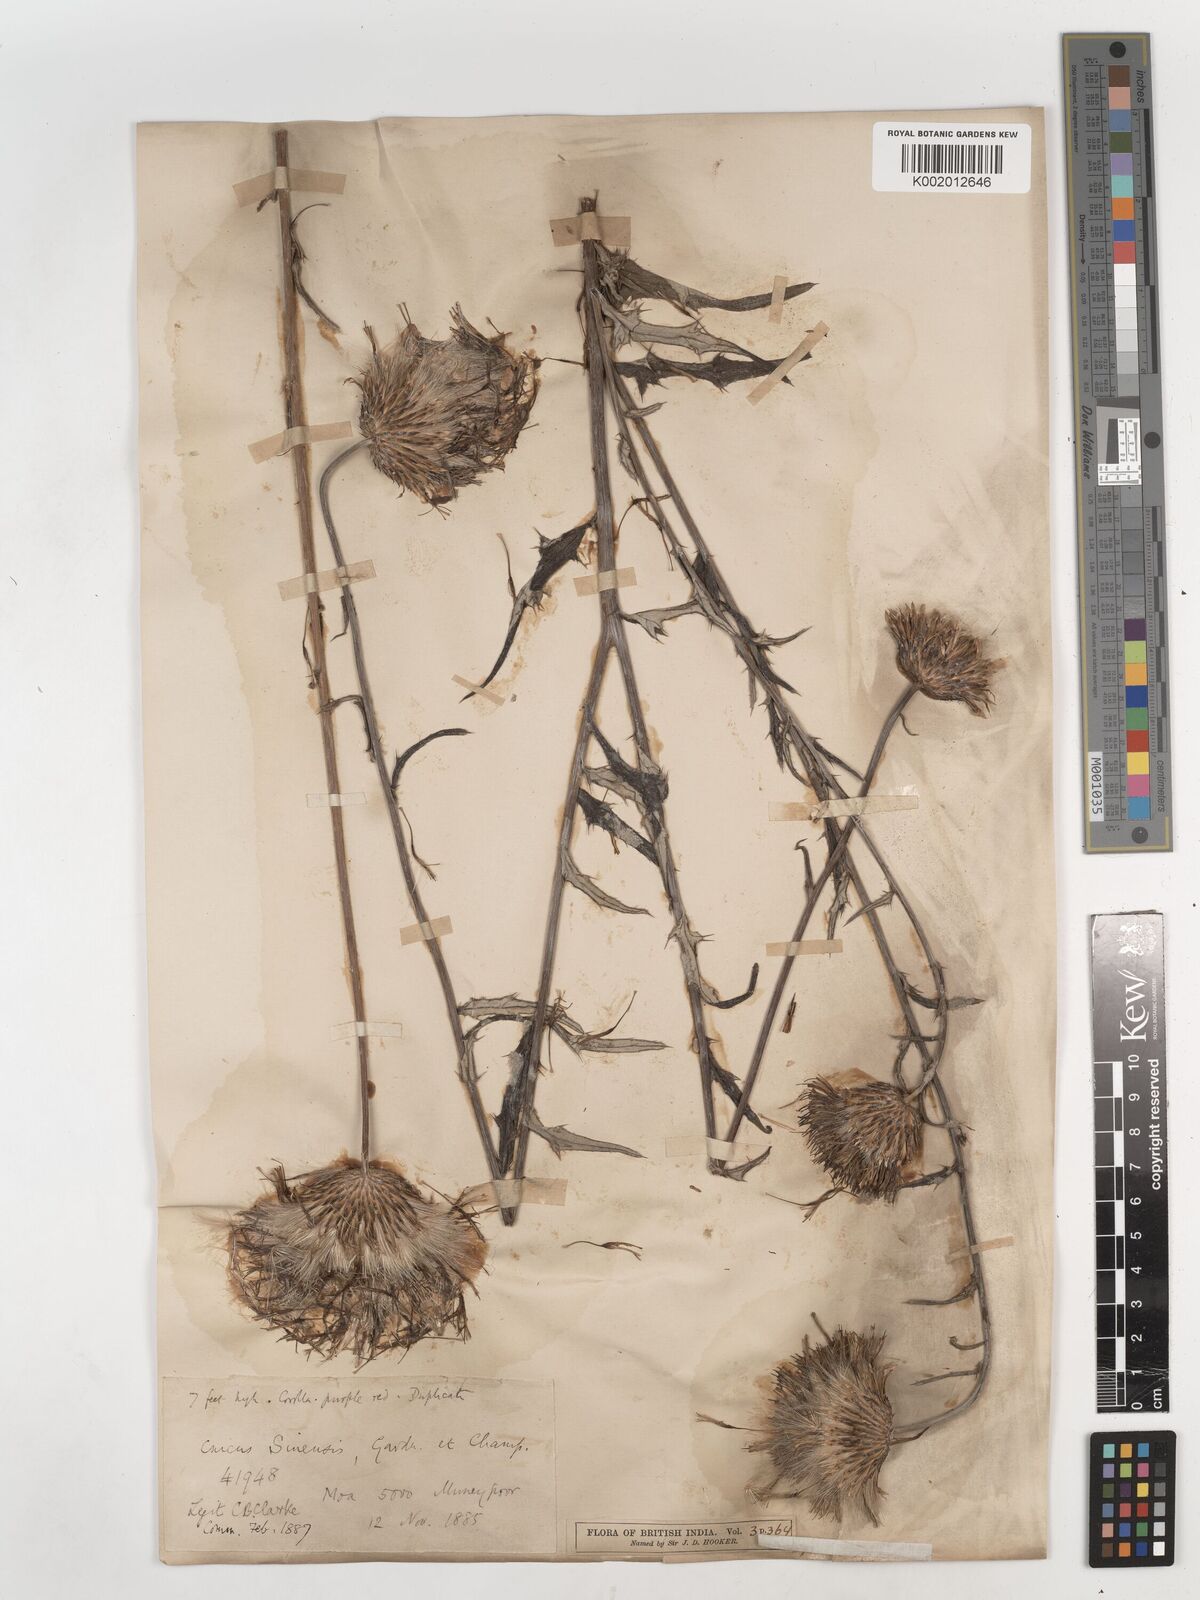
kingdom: Plantae
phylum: Tracheophyta
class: Magnoliopsida
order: Asterales
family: Asteraceae
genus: Cirsium
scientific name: Cirsium chinense
